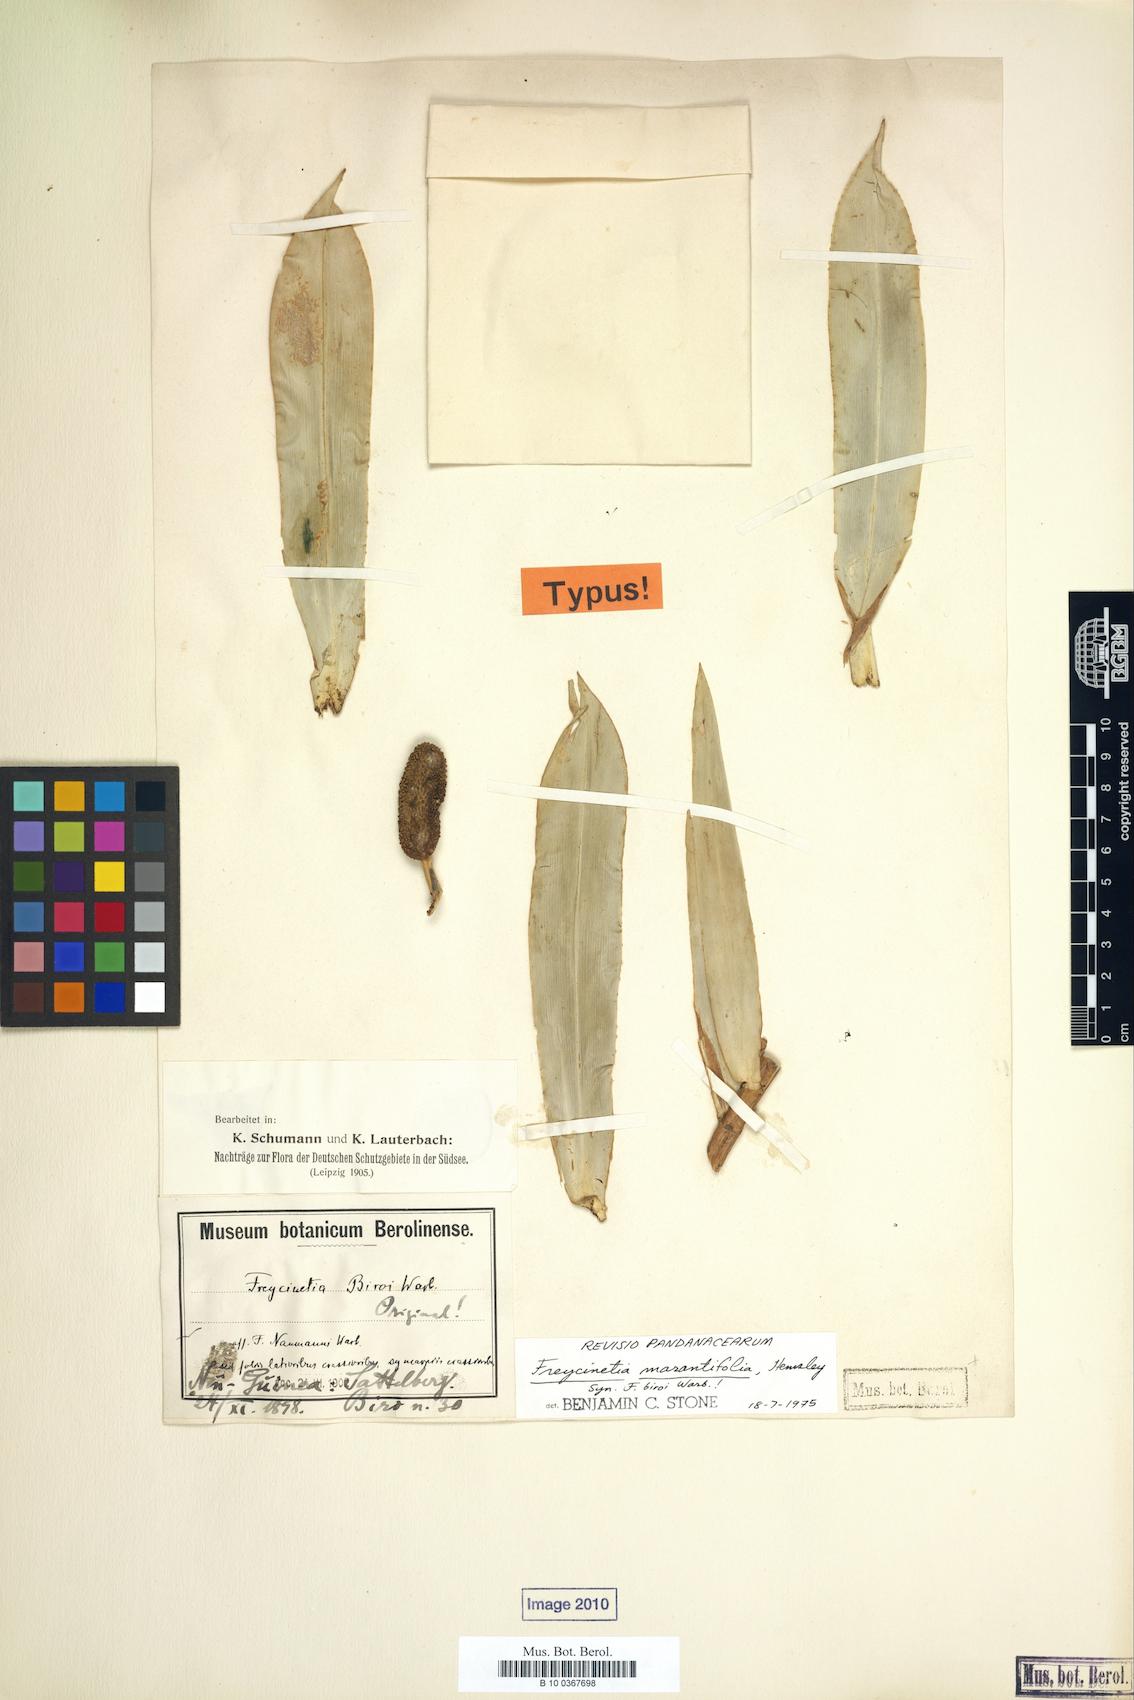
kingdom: Plantae
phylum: Tracheophyta
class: Liliopsida
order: Pandanales
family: Pandanaceae
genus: Freycinetia
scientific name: Freycinetia marantifolia
